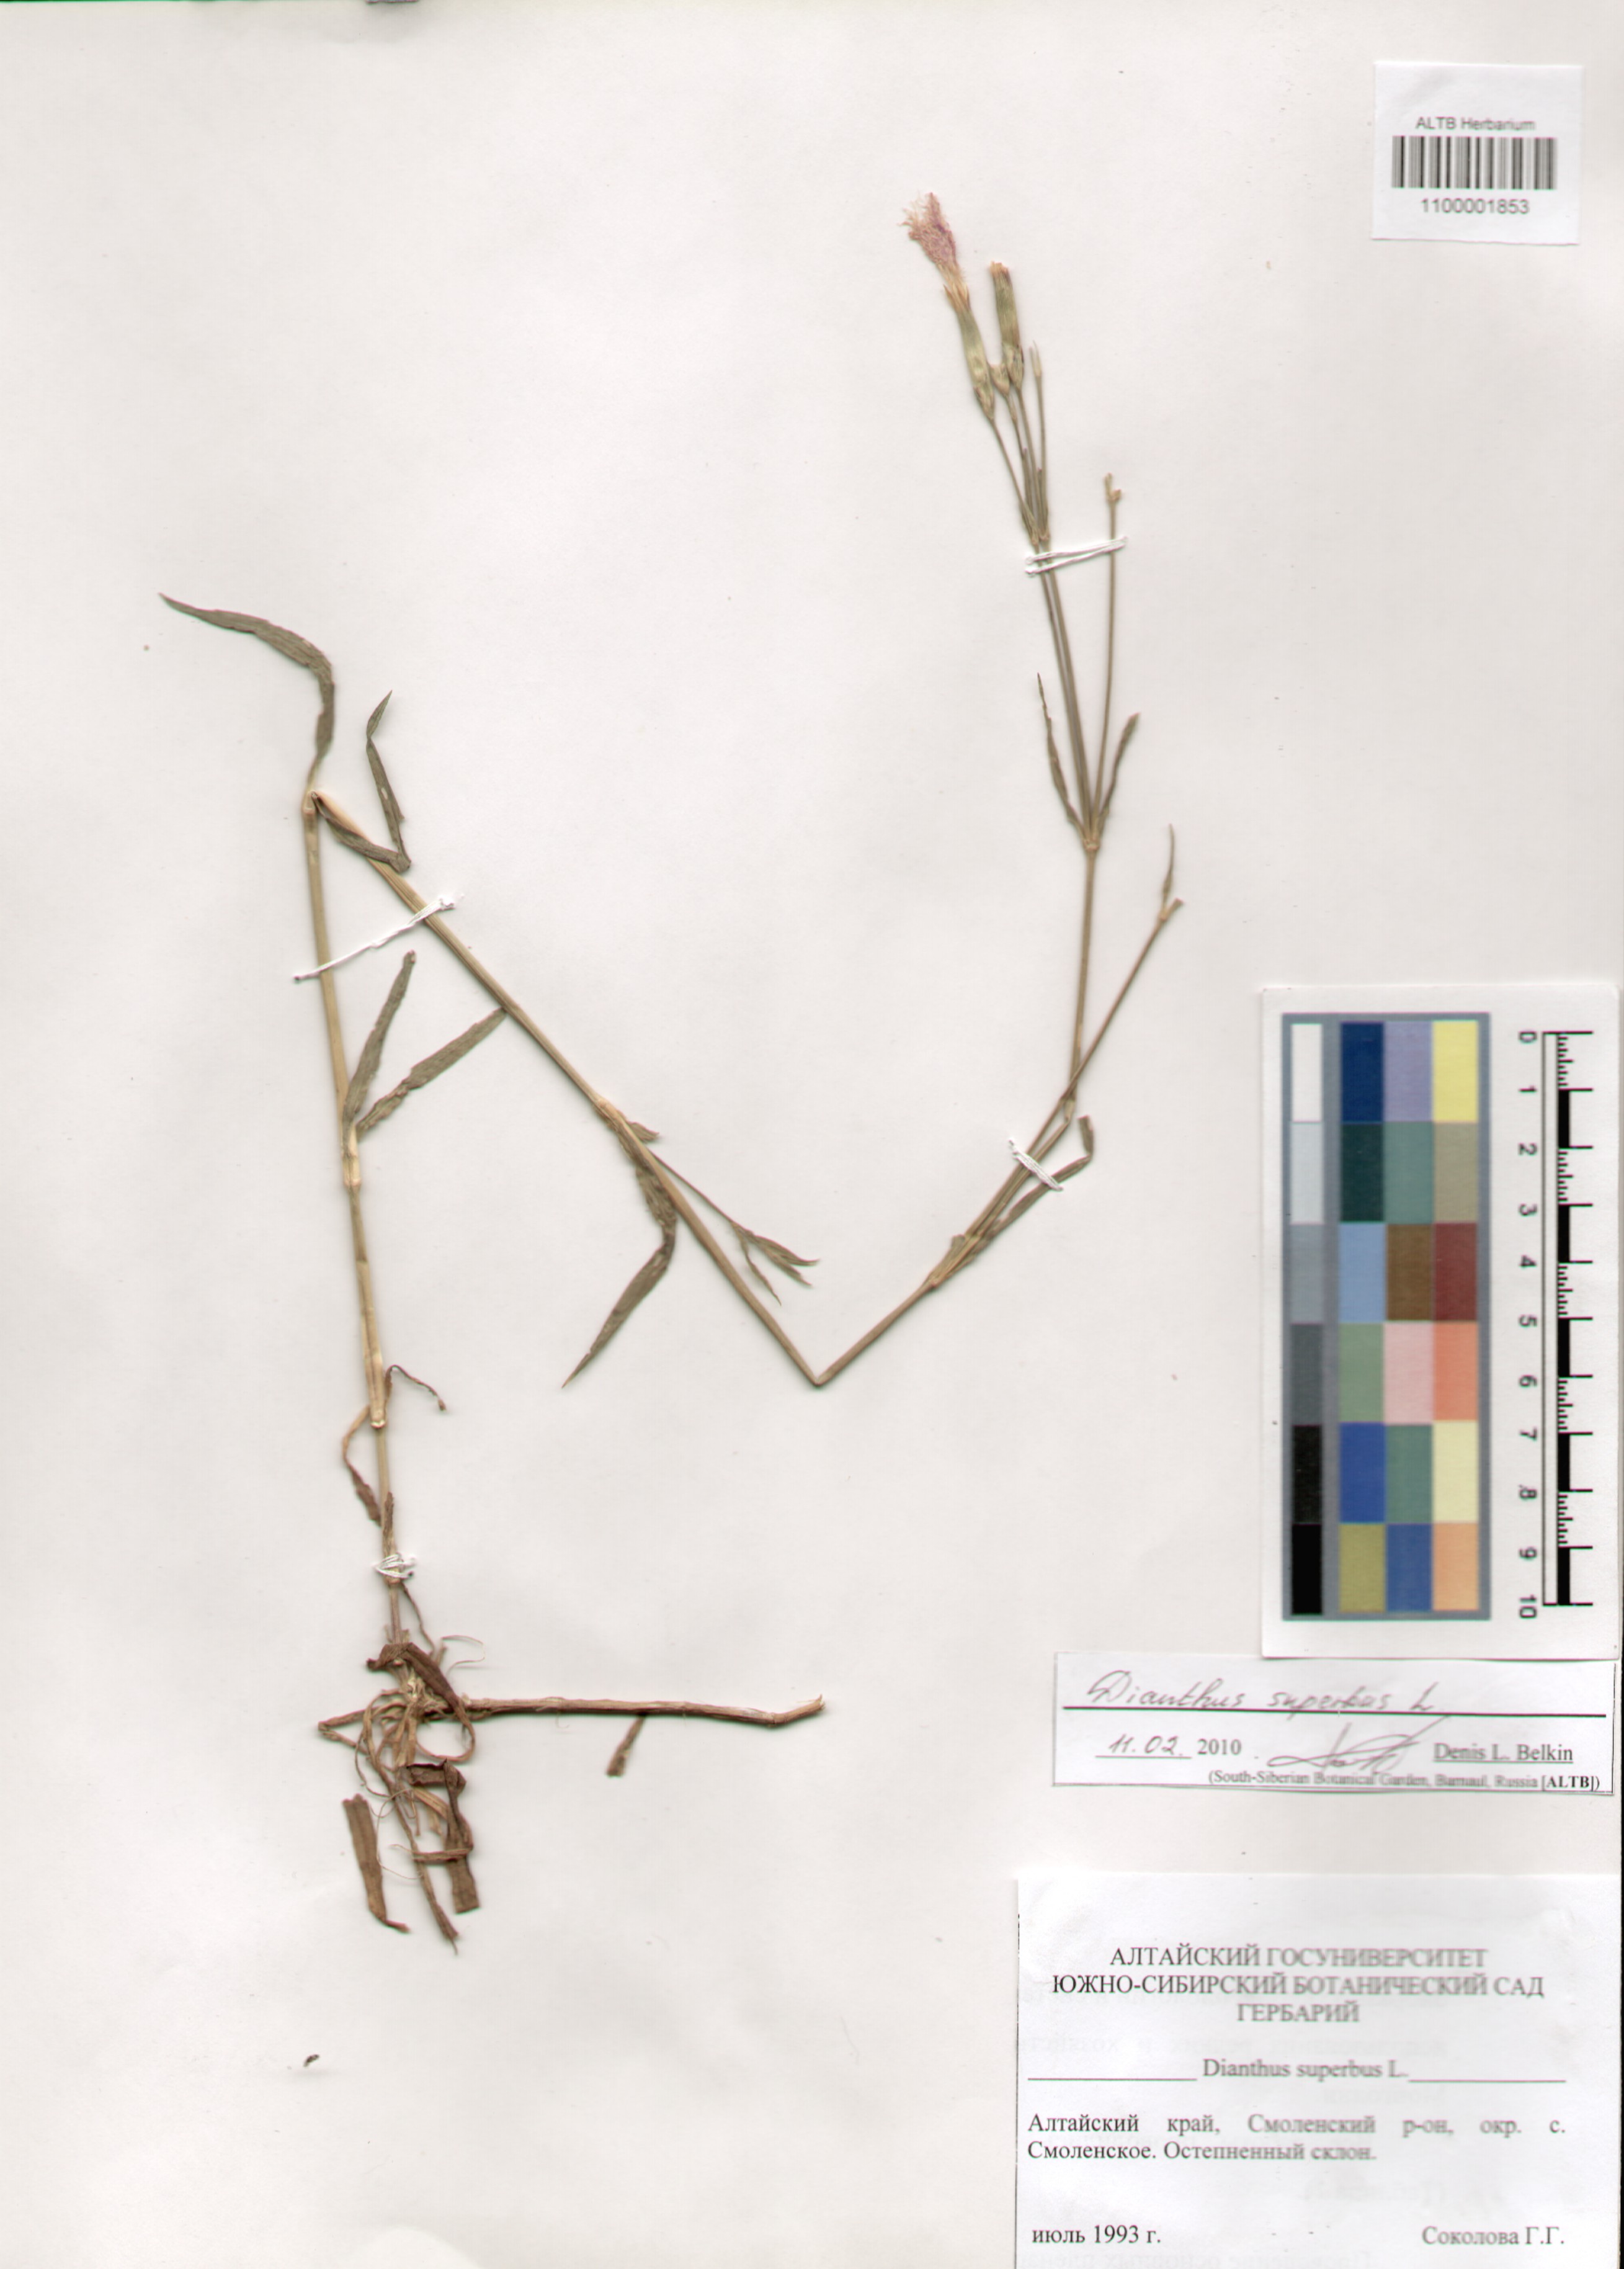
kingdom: Plantae
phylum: Tracheophyta
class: Magnoliopsida
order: Caryophyllales
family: Caryophyllaceae
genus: Dianthus
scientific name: Dianthus superbus
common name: Fringed pink
